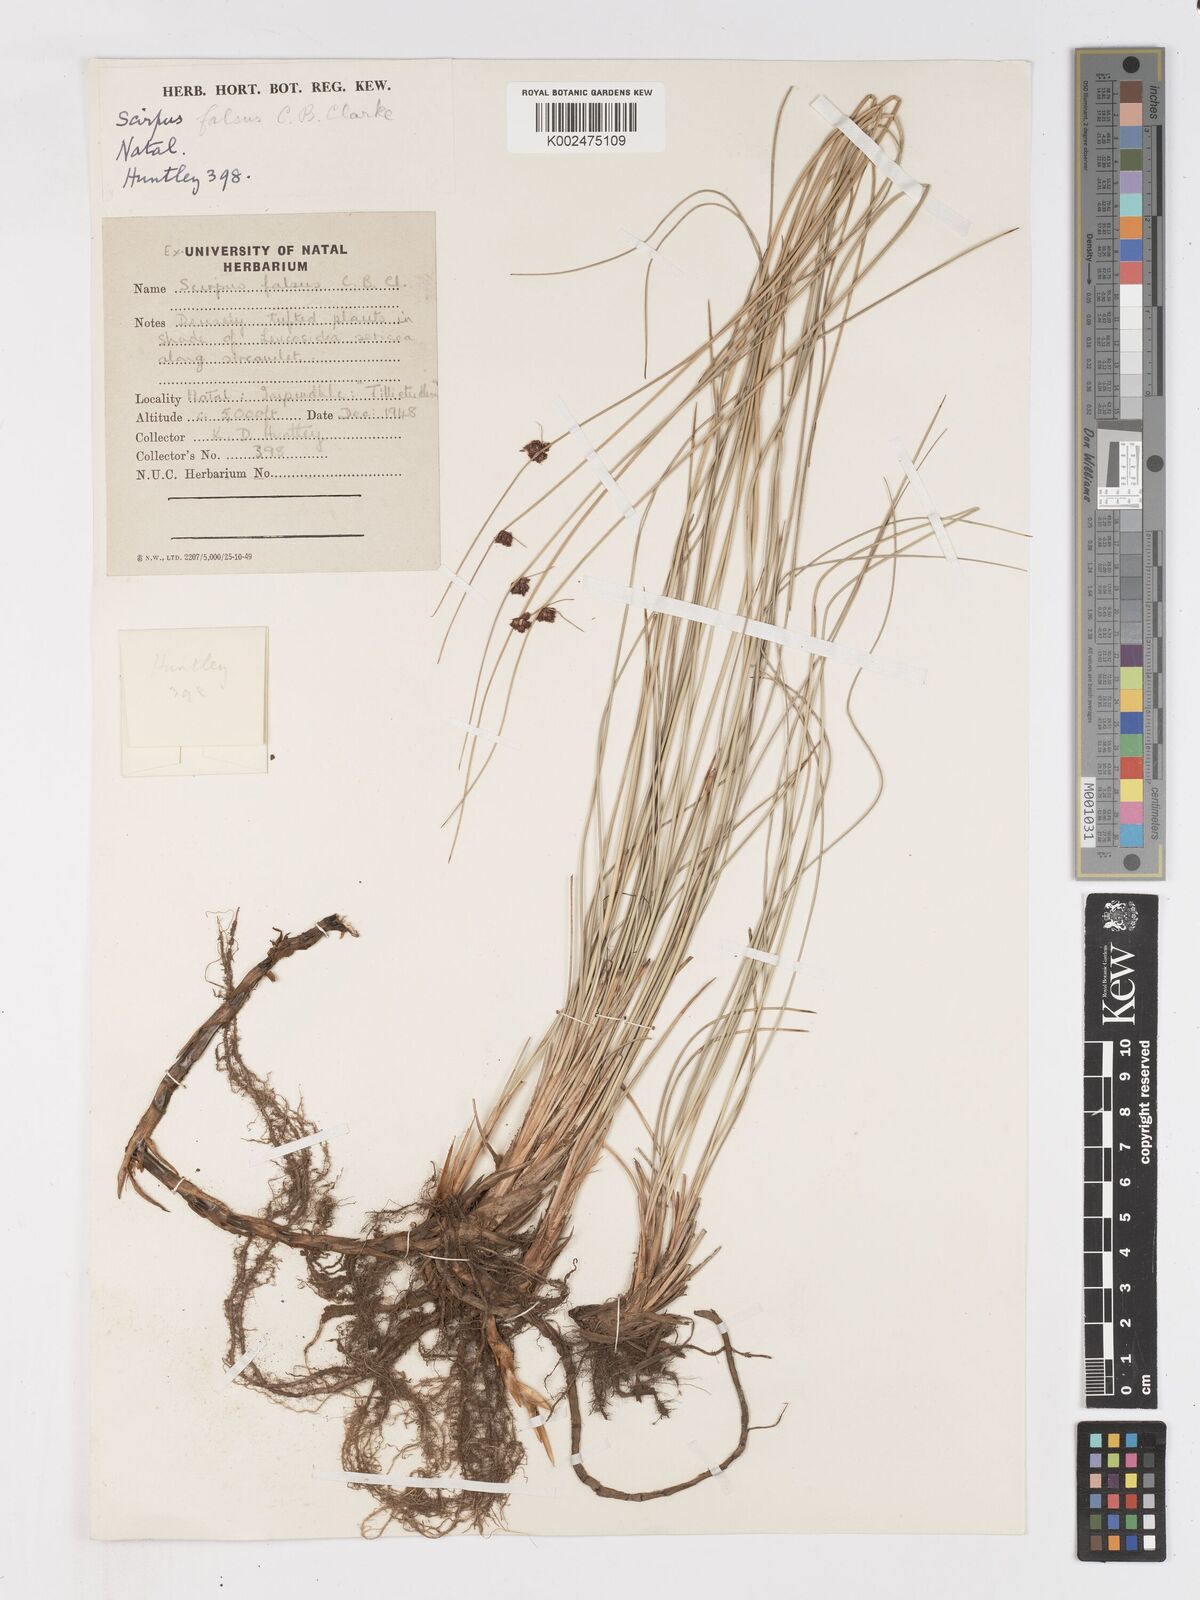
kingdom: Plantae
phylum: Tracheophyta
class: Liliopsida
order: Poales
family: Cyperaceae
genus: Ficinia
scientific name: Ficinia filiformis
